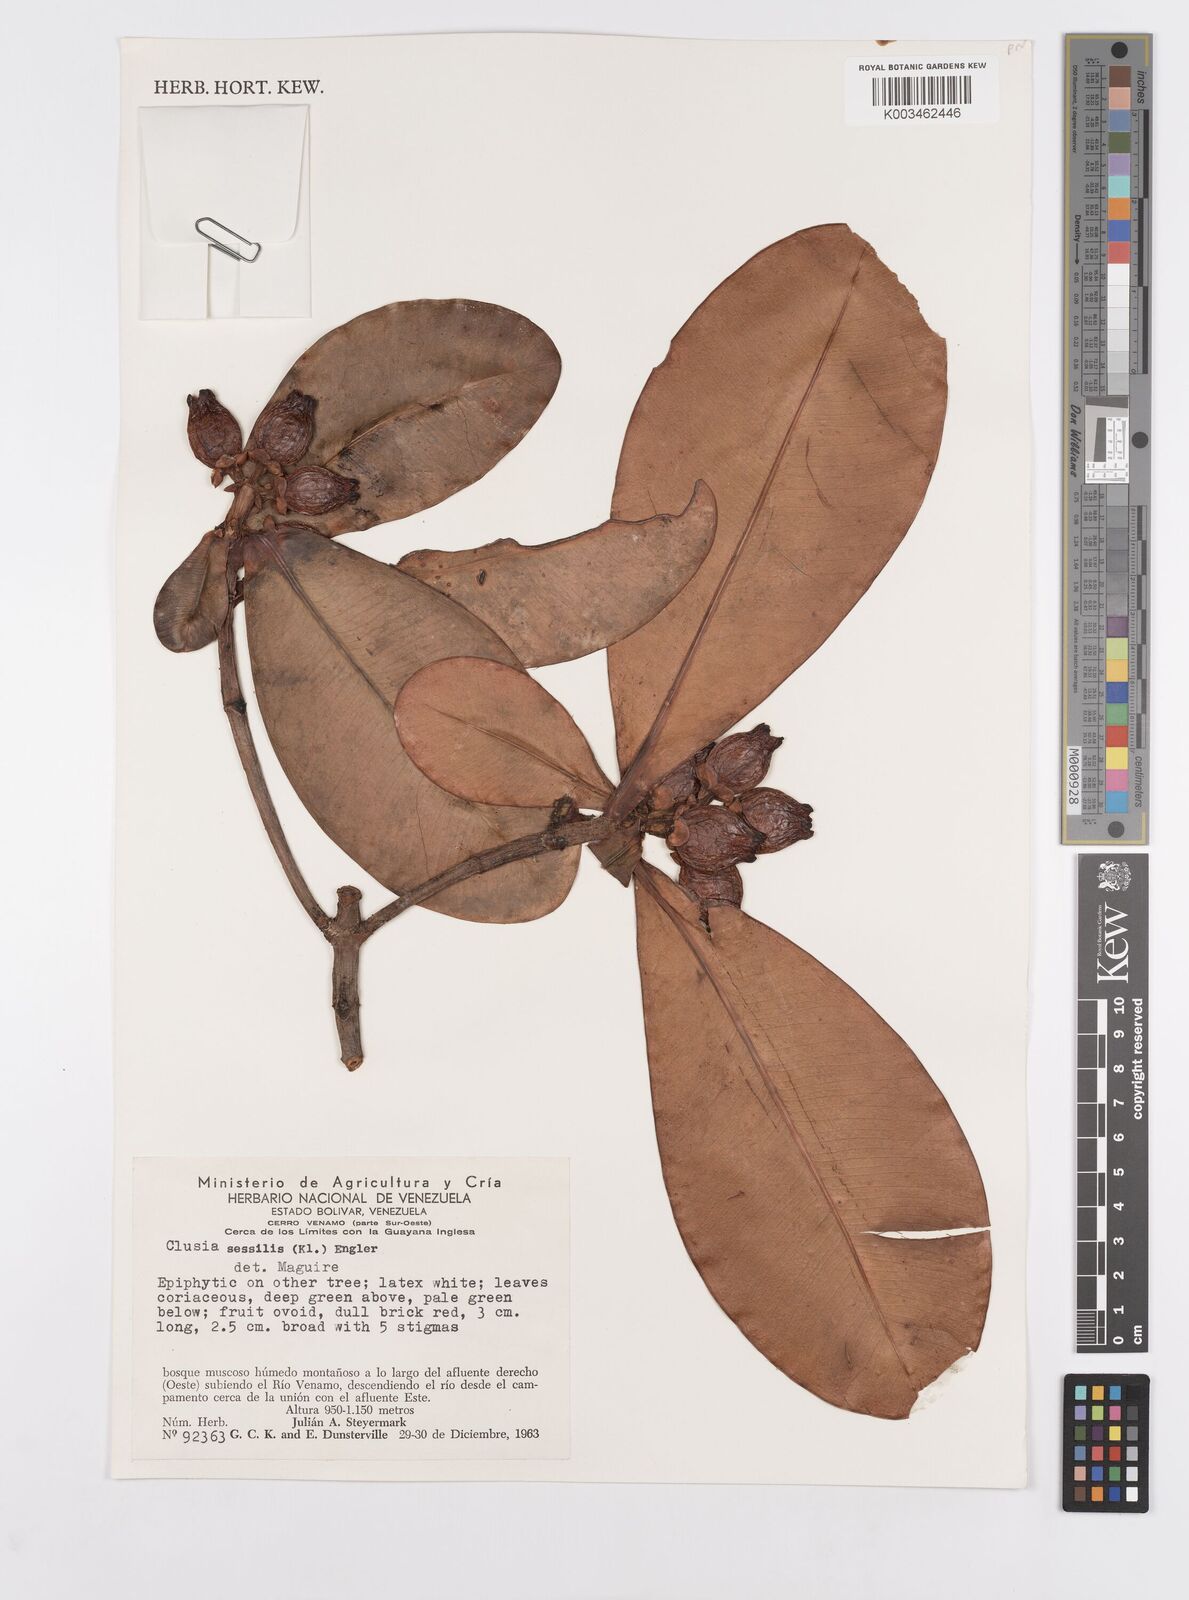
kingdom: Plantae
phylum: Tracheophyta
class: Magnoliopsida
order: Malpighiales
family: Clusiaceae
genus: Garcinia
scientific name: Garcinia sessilis
